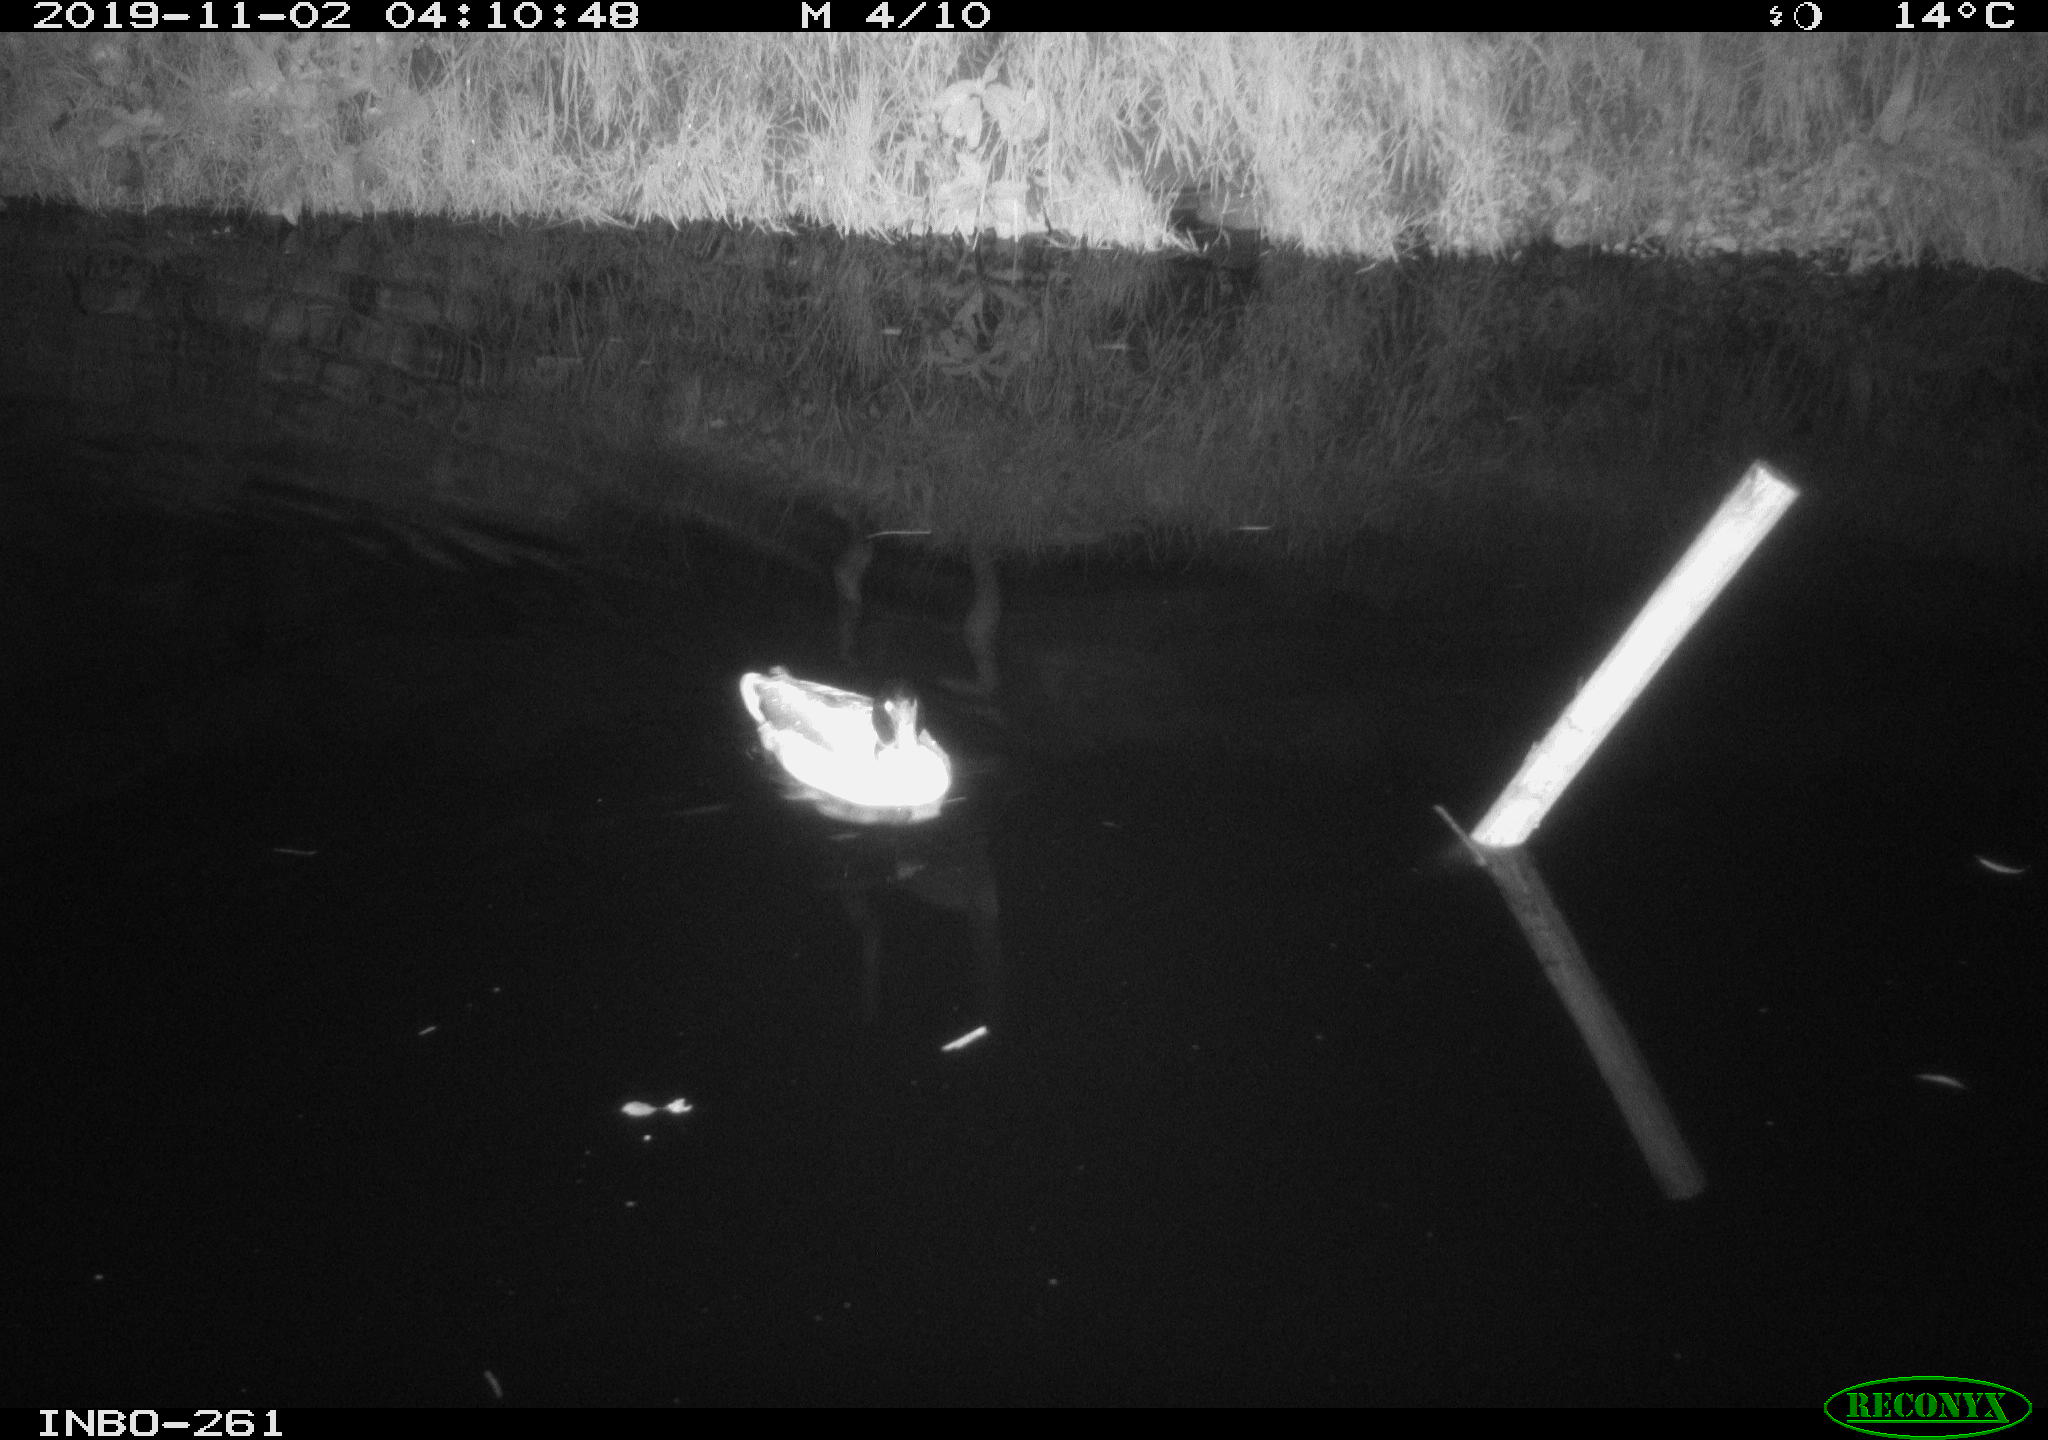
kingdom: Animalia
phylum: Chordata
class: Aves
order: Anseriformes
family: Anatidae
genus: Anas
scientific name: Anas platyrhynchos
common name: Mallard
